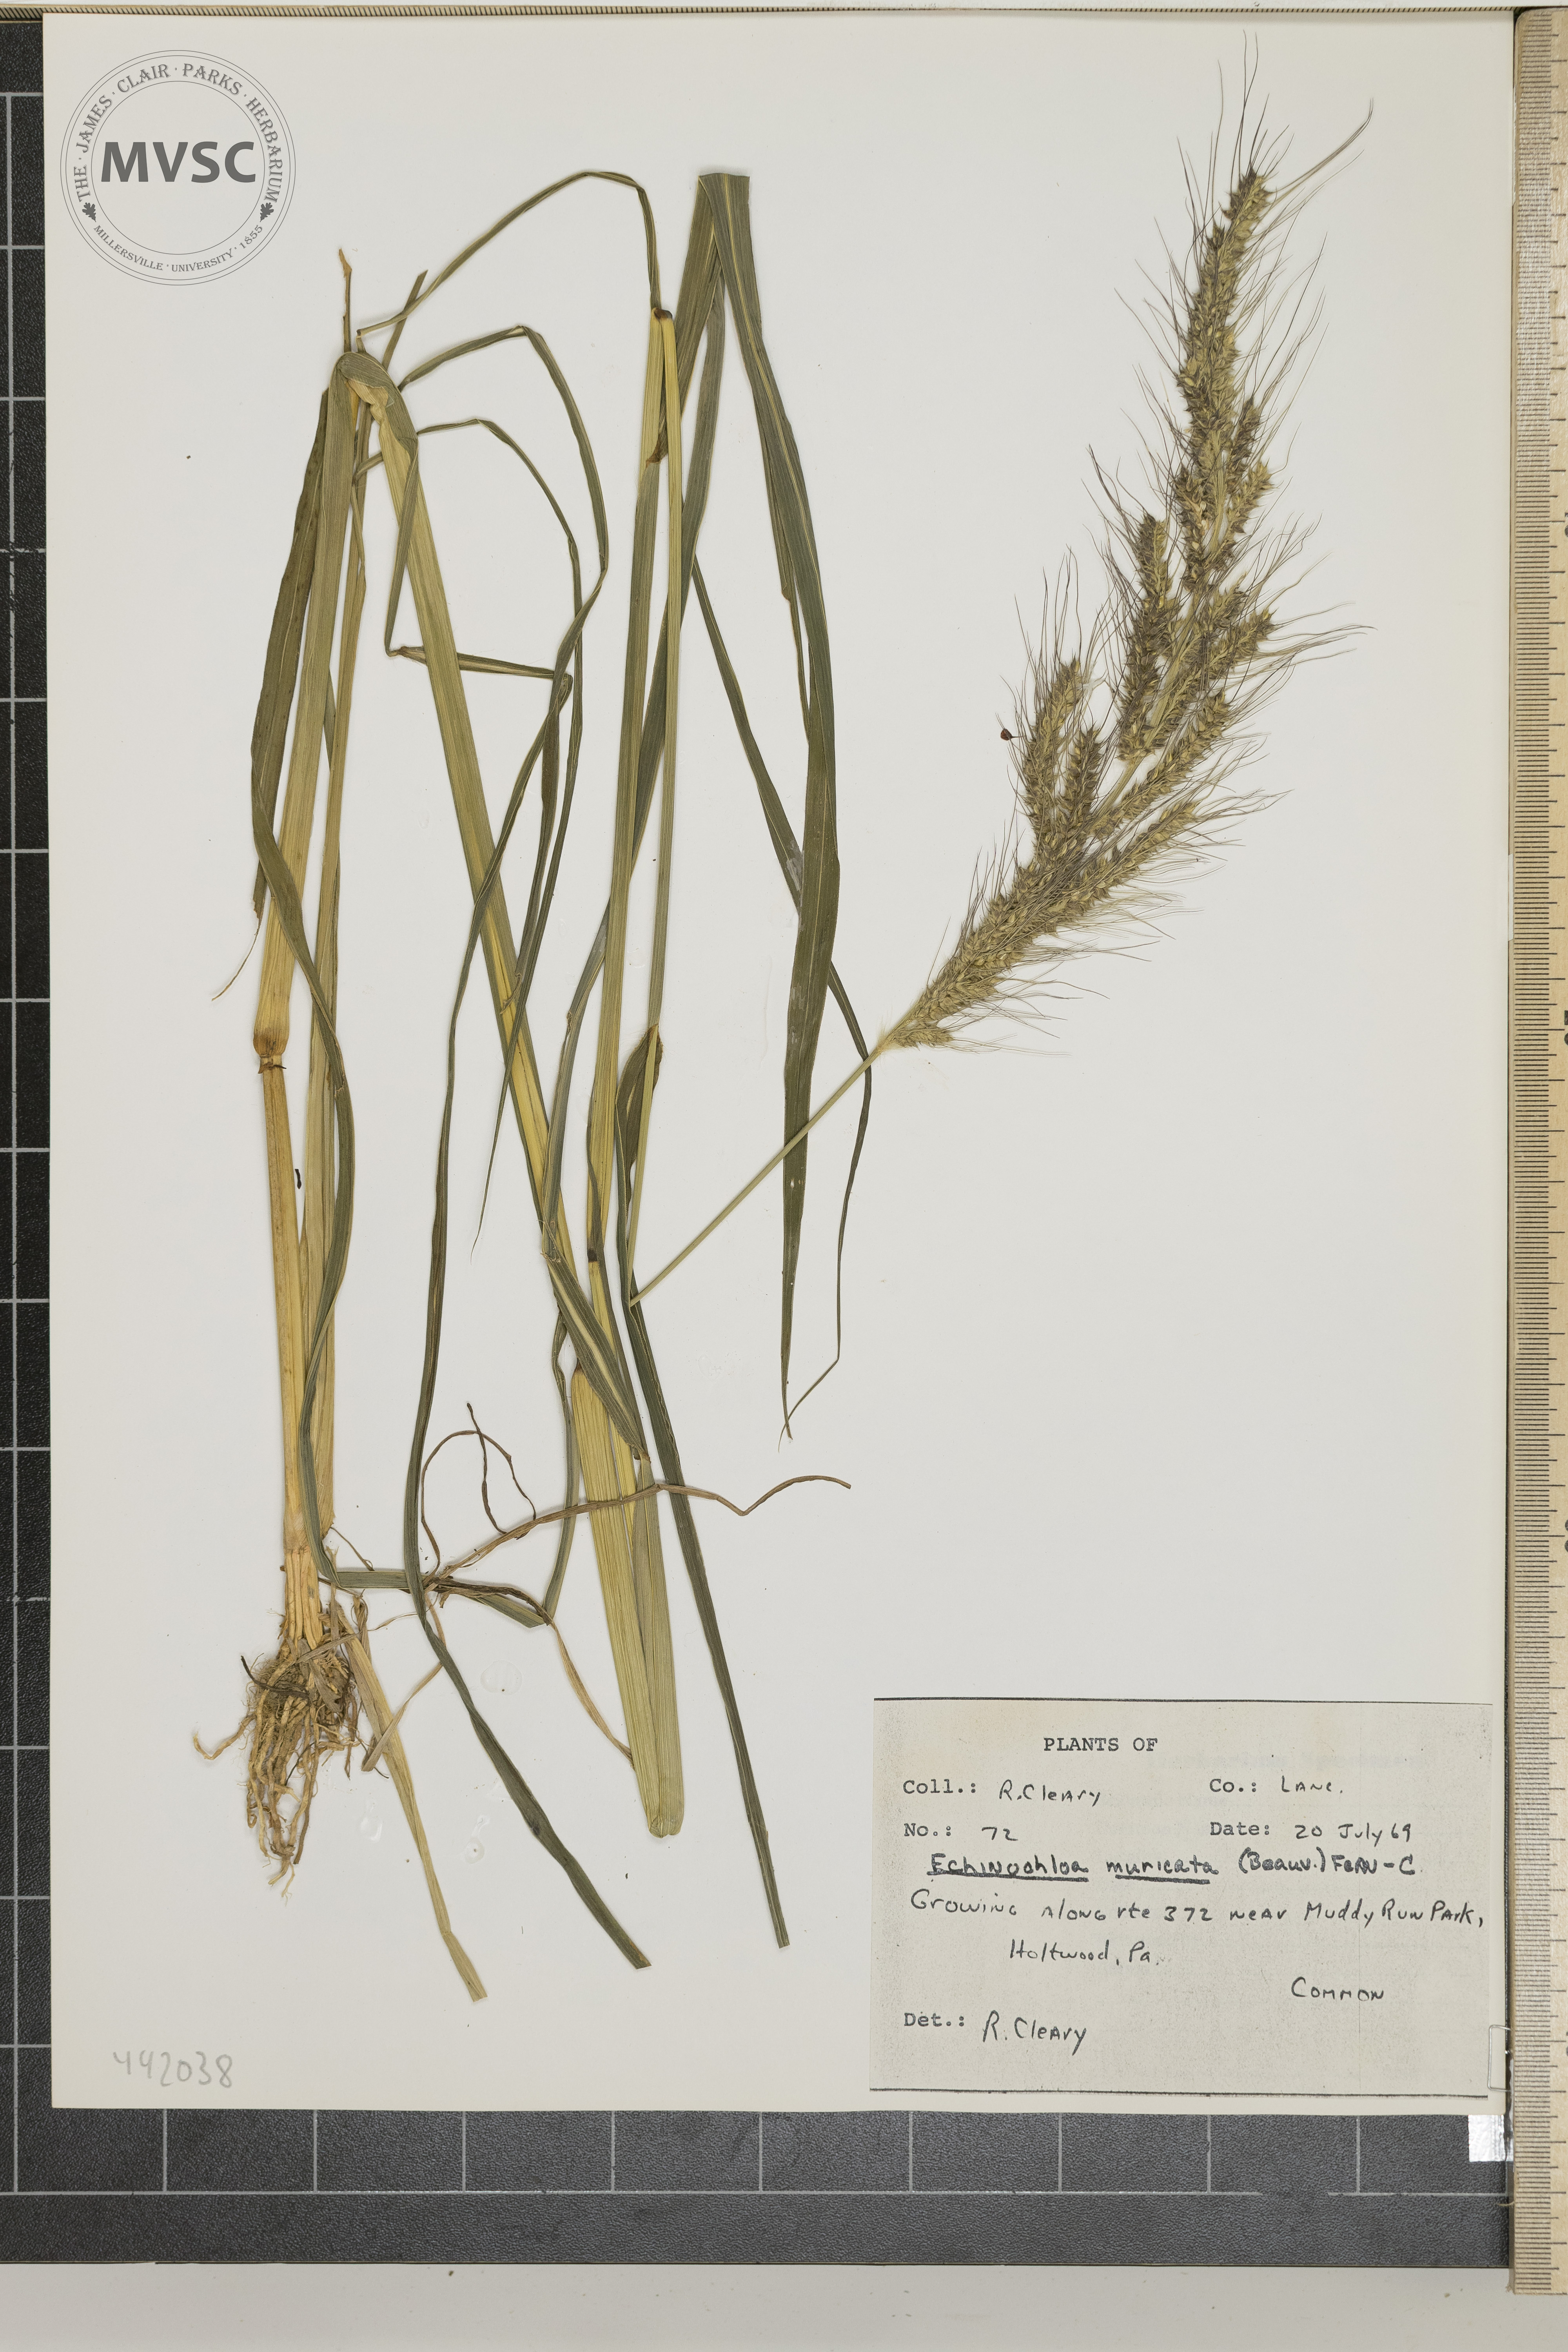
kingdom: Plantae
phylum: Tracheophyta
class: Liliopsida
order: Poales
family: Poaceae
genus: Echinochloa
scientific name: Echinochloa muricata
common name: American barnyard grass
